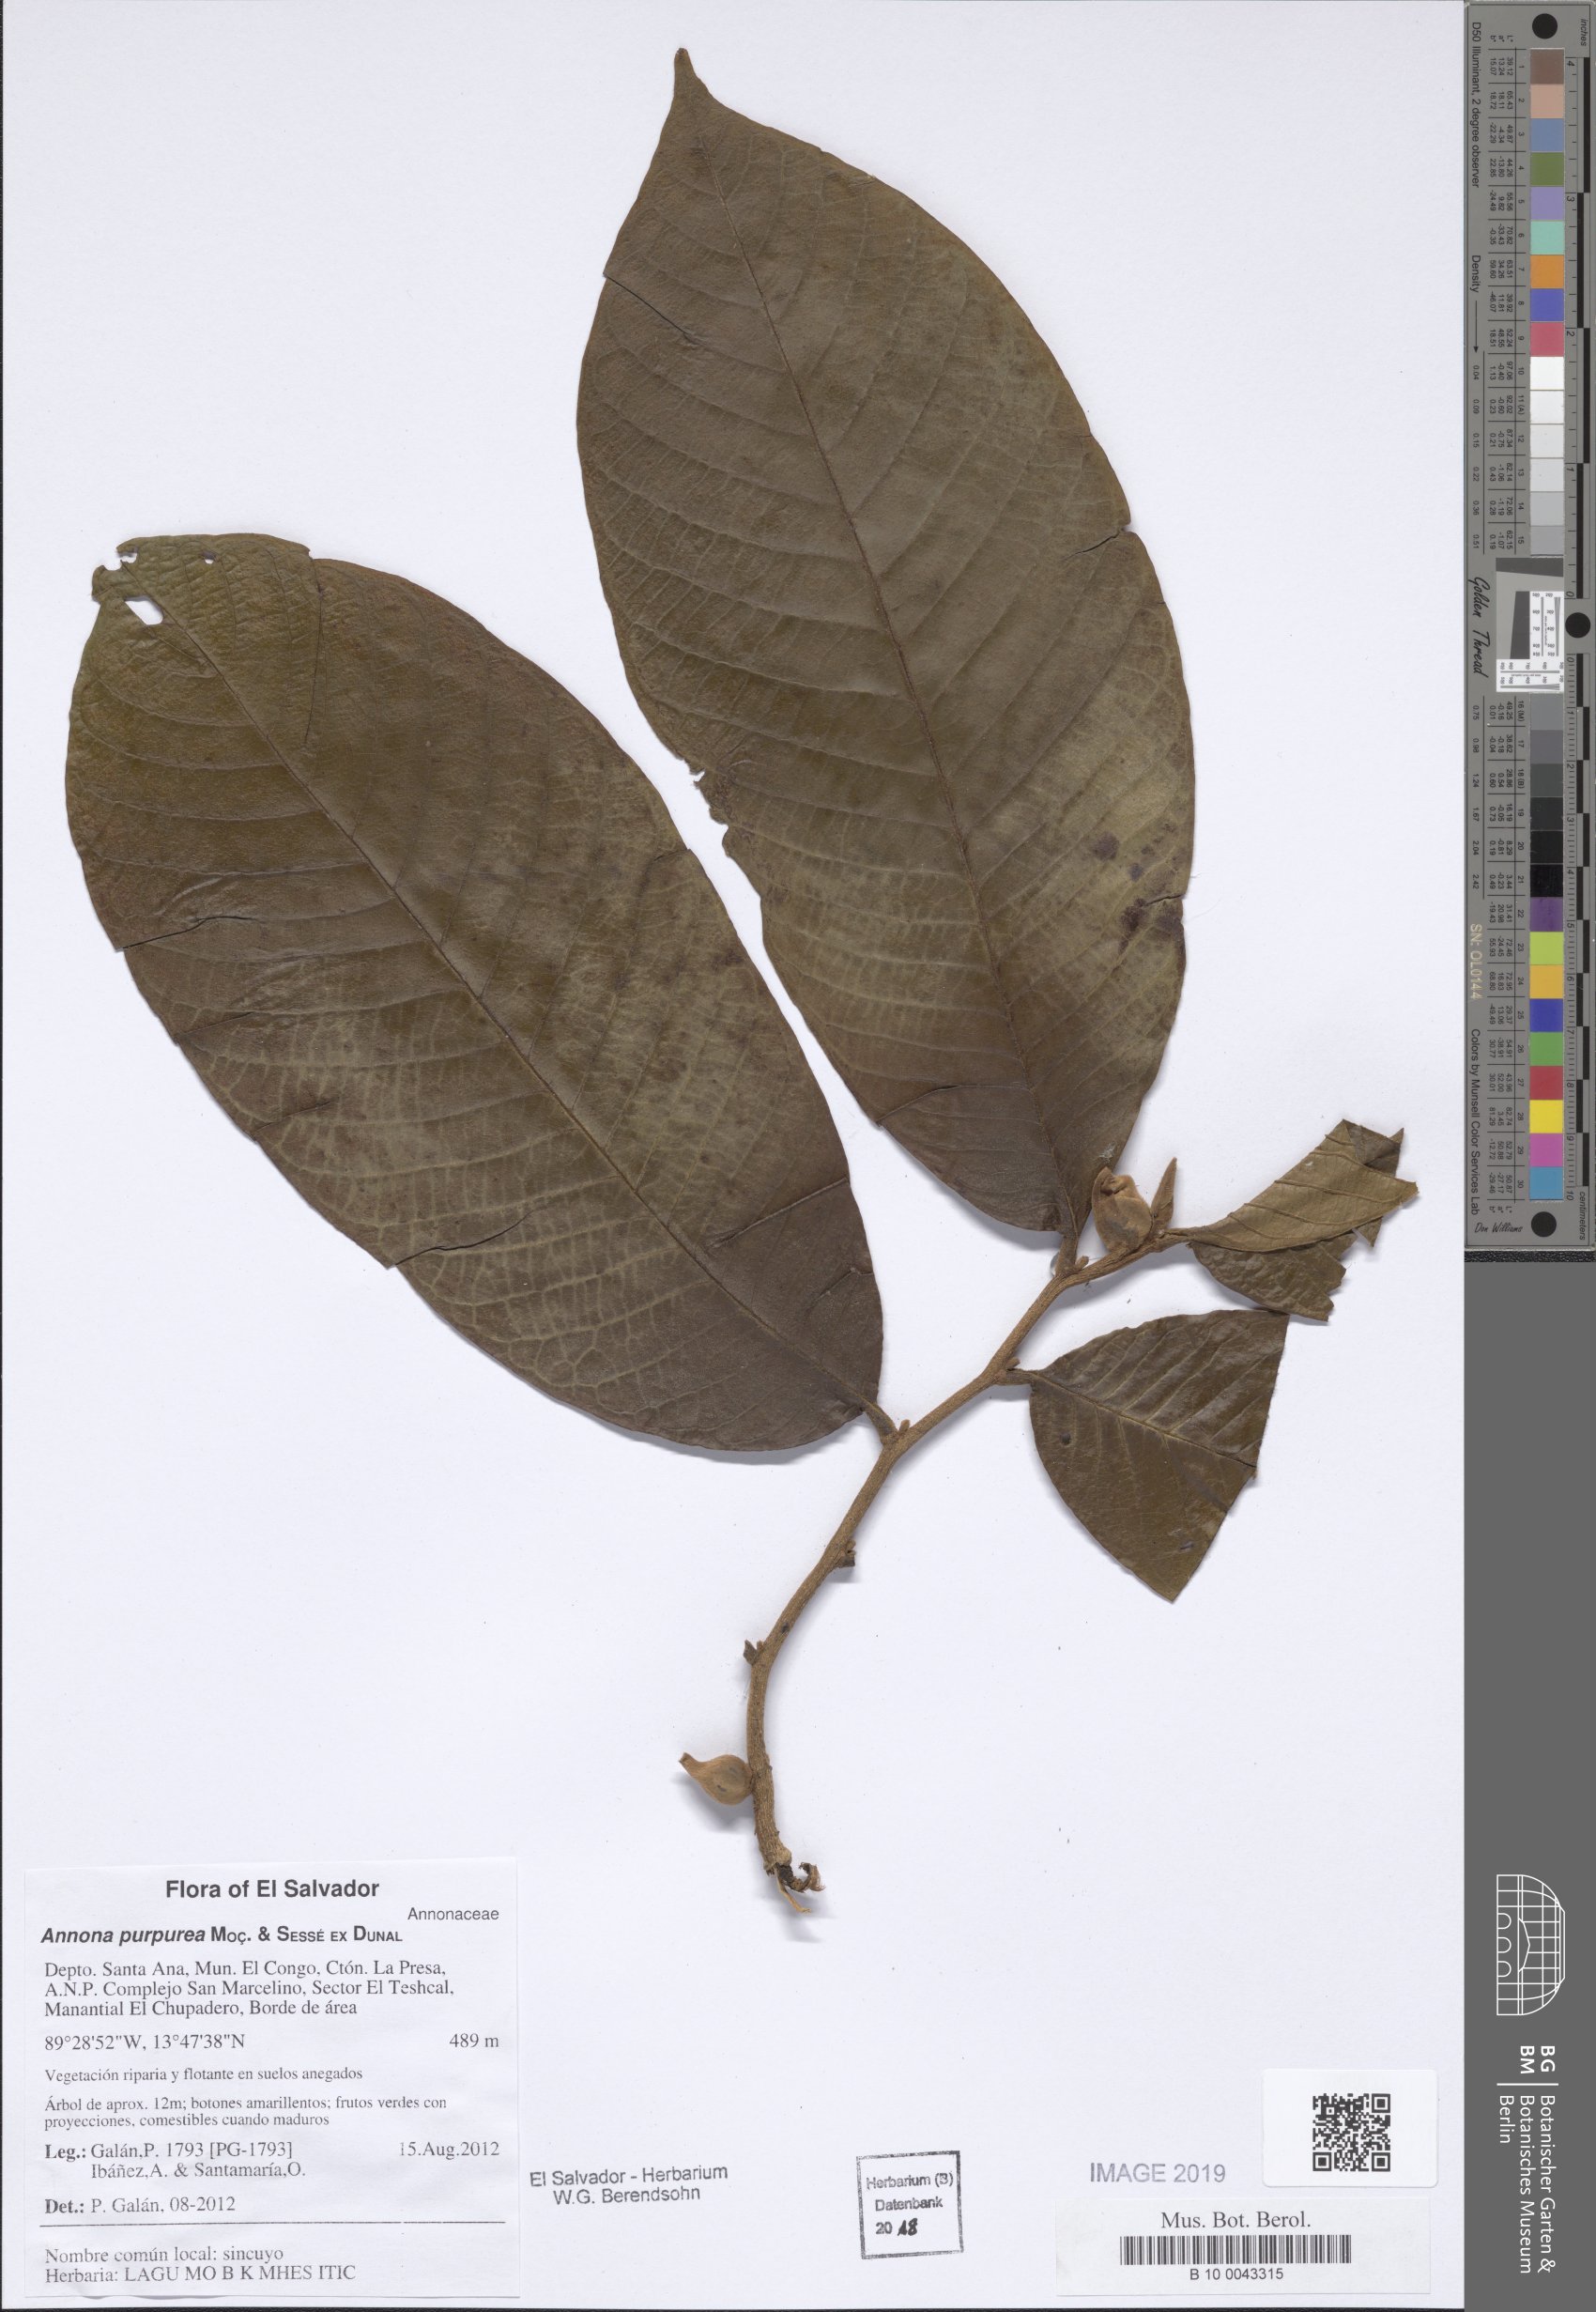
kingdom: Plantae
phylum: Tracheophyta
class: Magnoliopsida
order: Magnoliales
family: Annonaceae
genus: Annona
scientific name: Annona purpurea
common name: Negrohead
